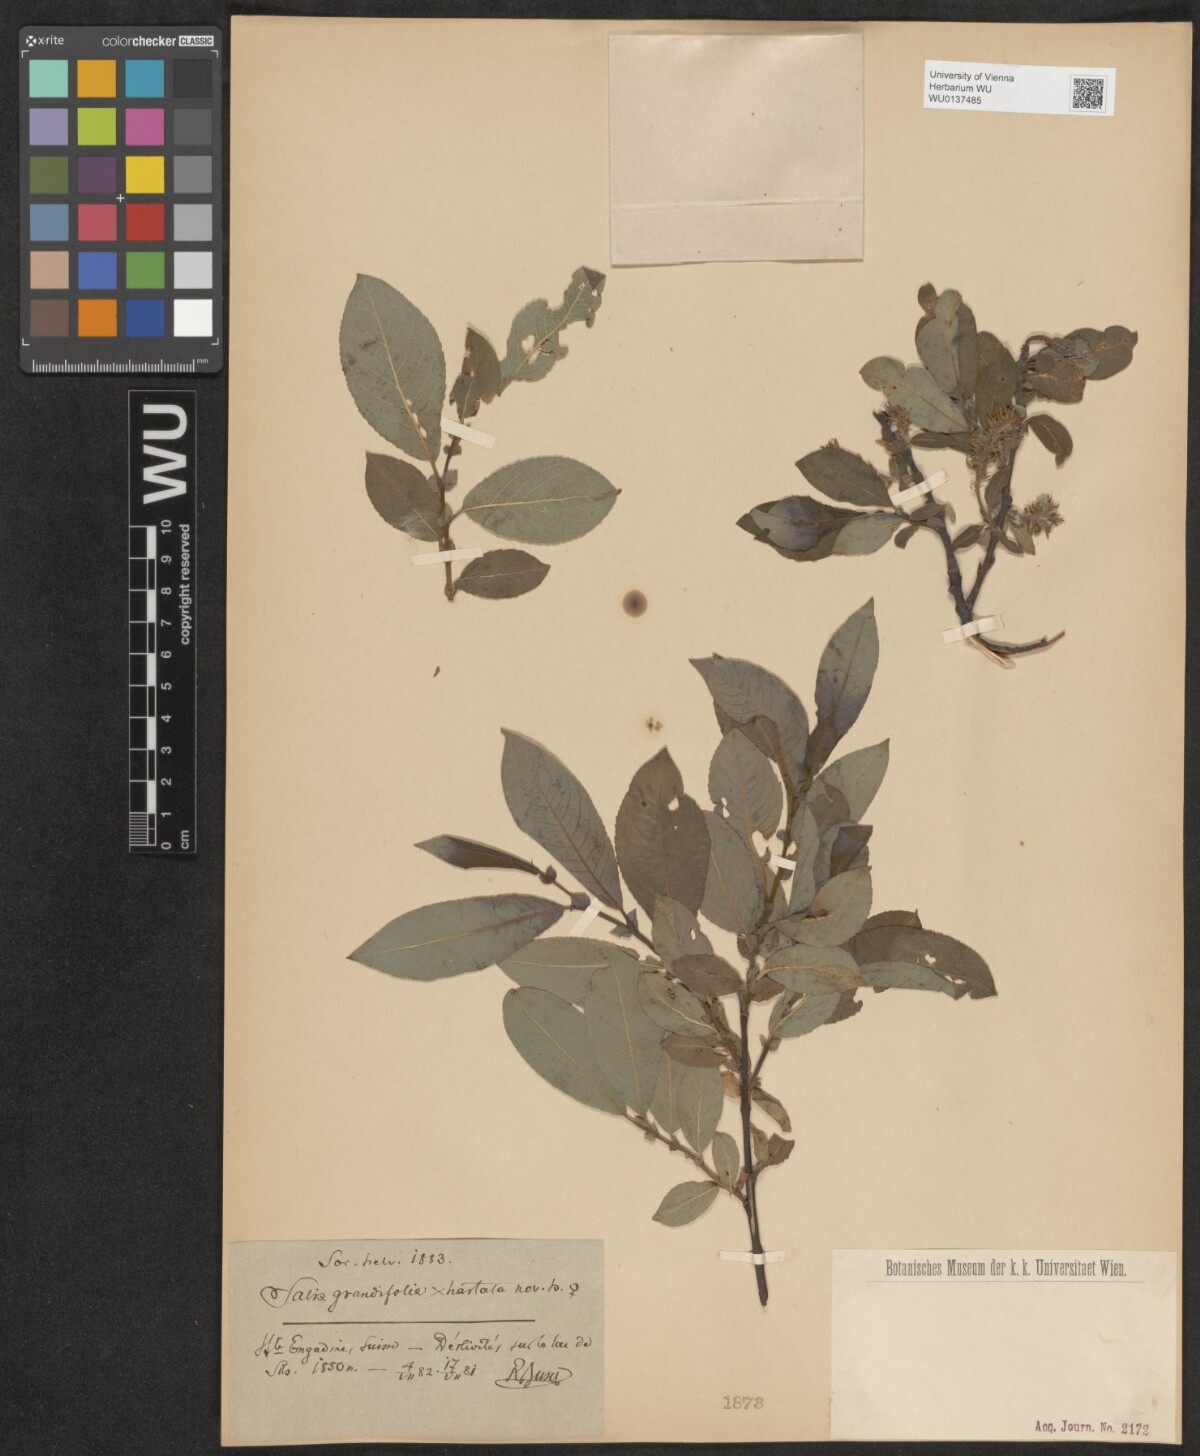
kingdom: Plantae
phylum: Tracheophyta
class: Magnoliopsida
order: Malpighiales
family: Salicaceae
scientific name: Salicaceae
